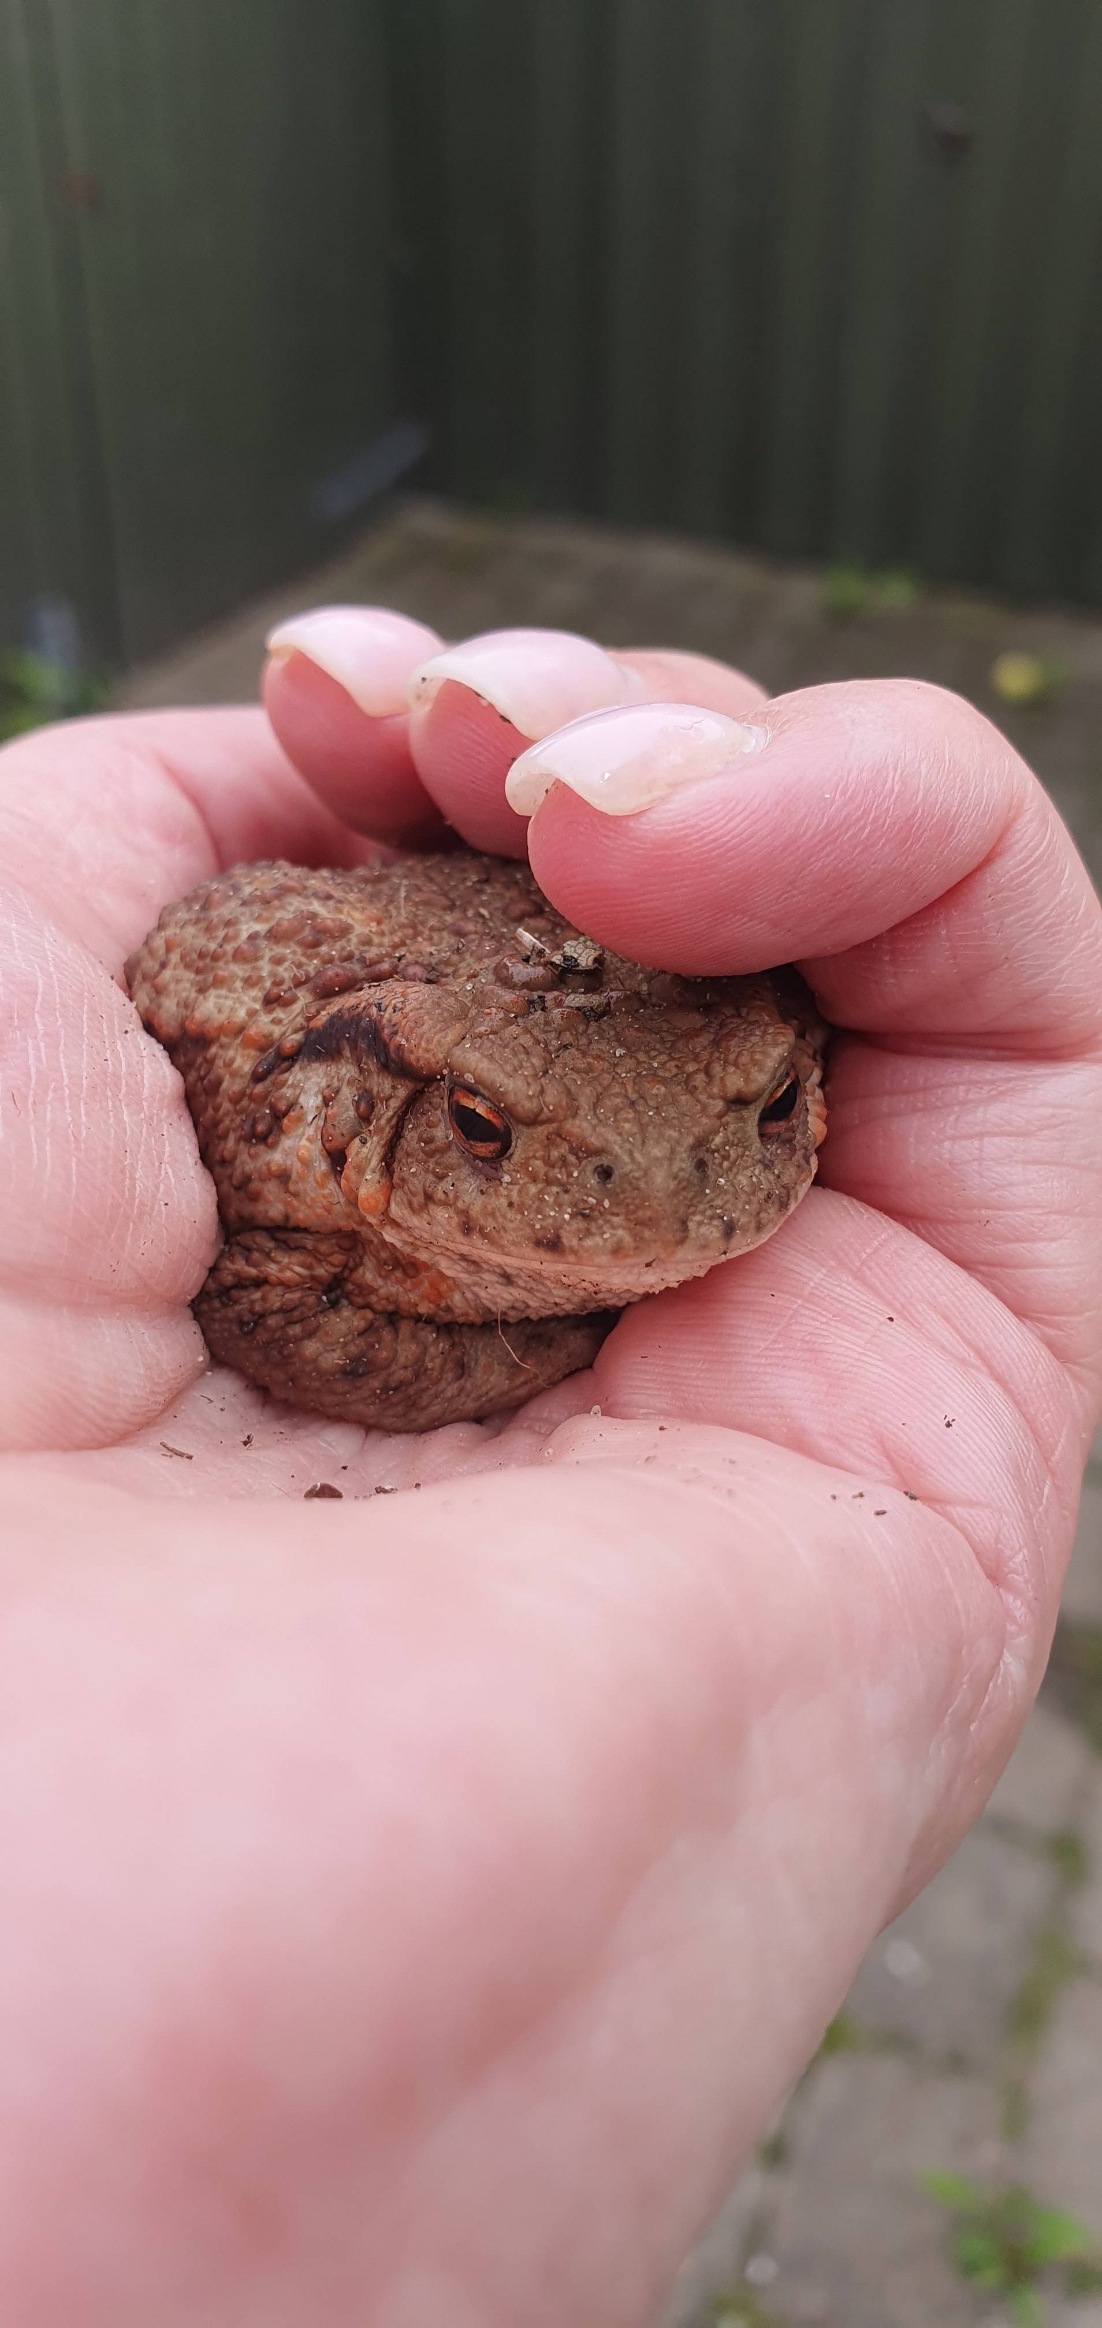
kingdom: Animalia
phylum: Chordata
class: Amphibia
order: Anura
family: Bufonidae
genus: Bufo
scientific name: Bufo bufo
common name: Skrubtudse
